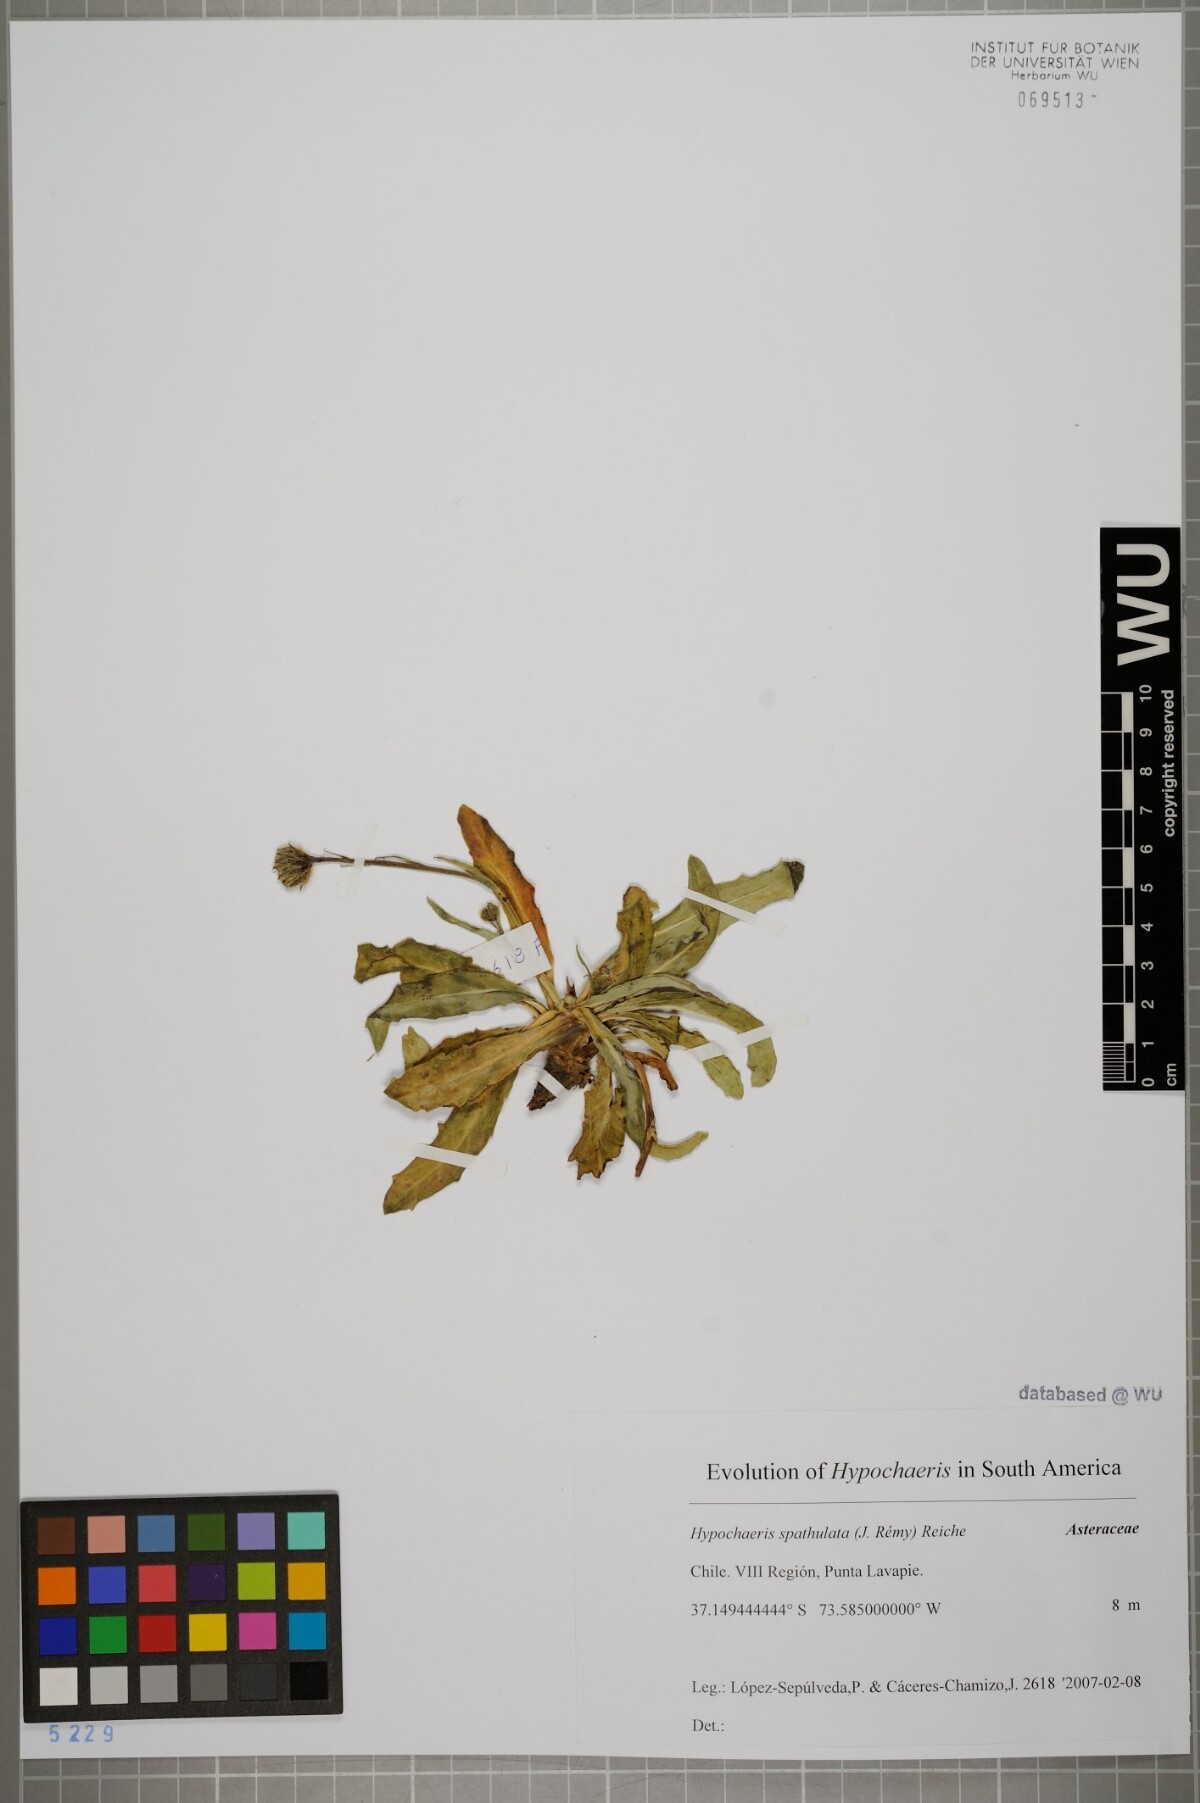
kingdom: Plantae
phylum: Tracheophyta
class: Magnoliopsida
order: Asterales
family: Asteraceae
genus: Hypochaeris
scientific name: Hypochaeris spathulata
